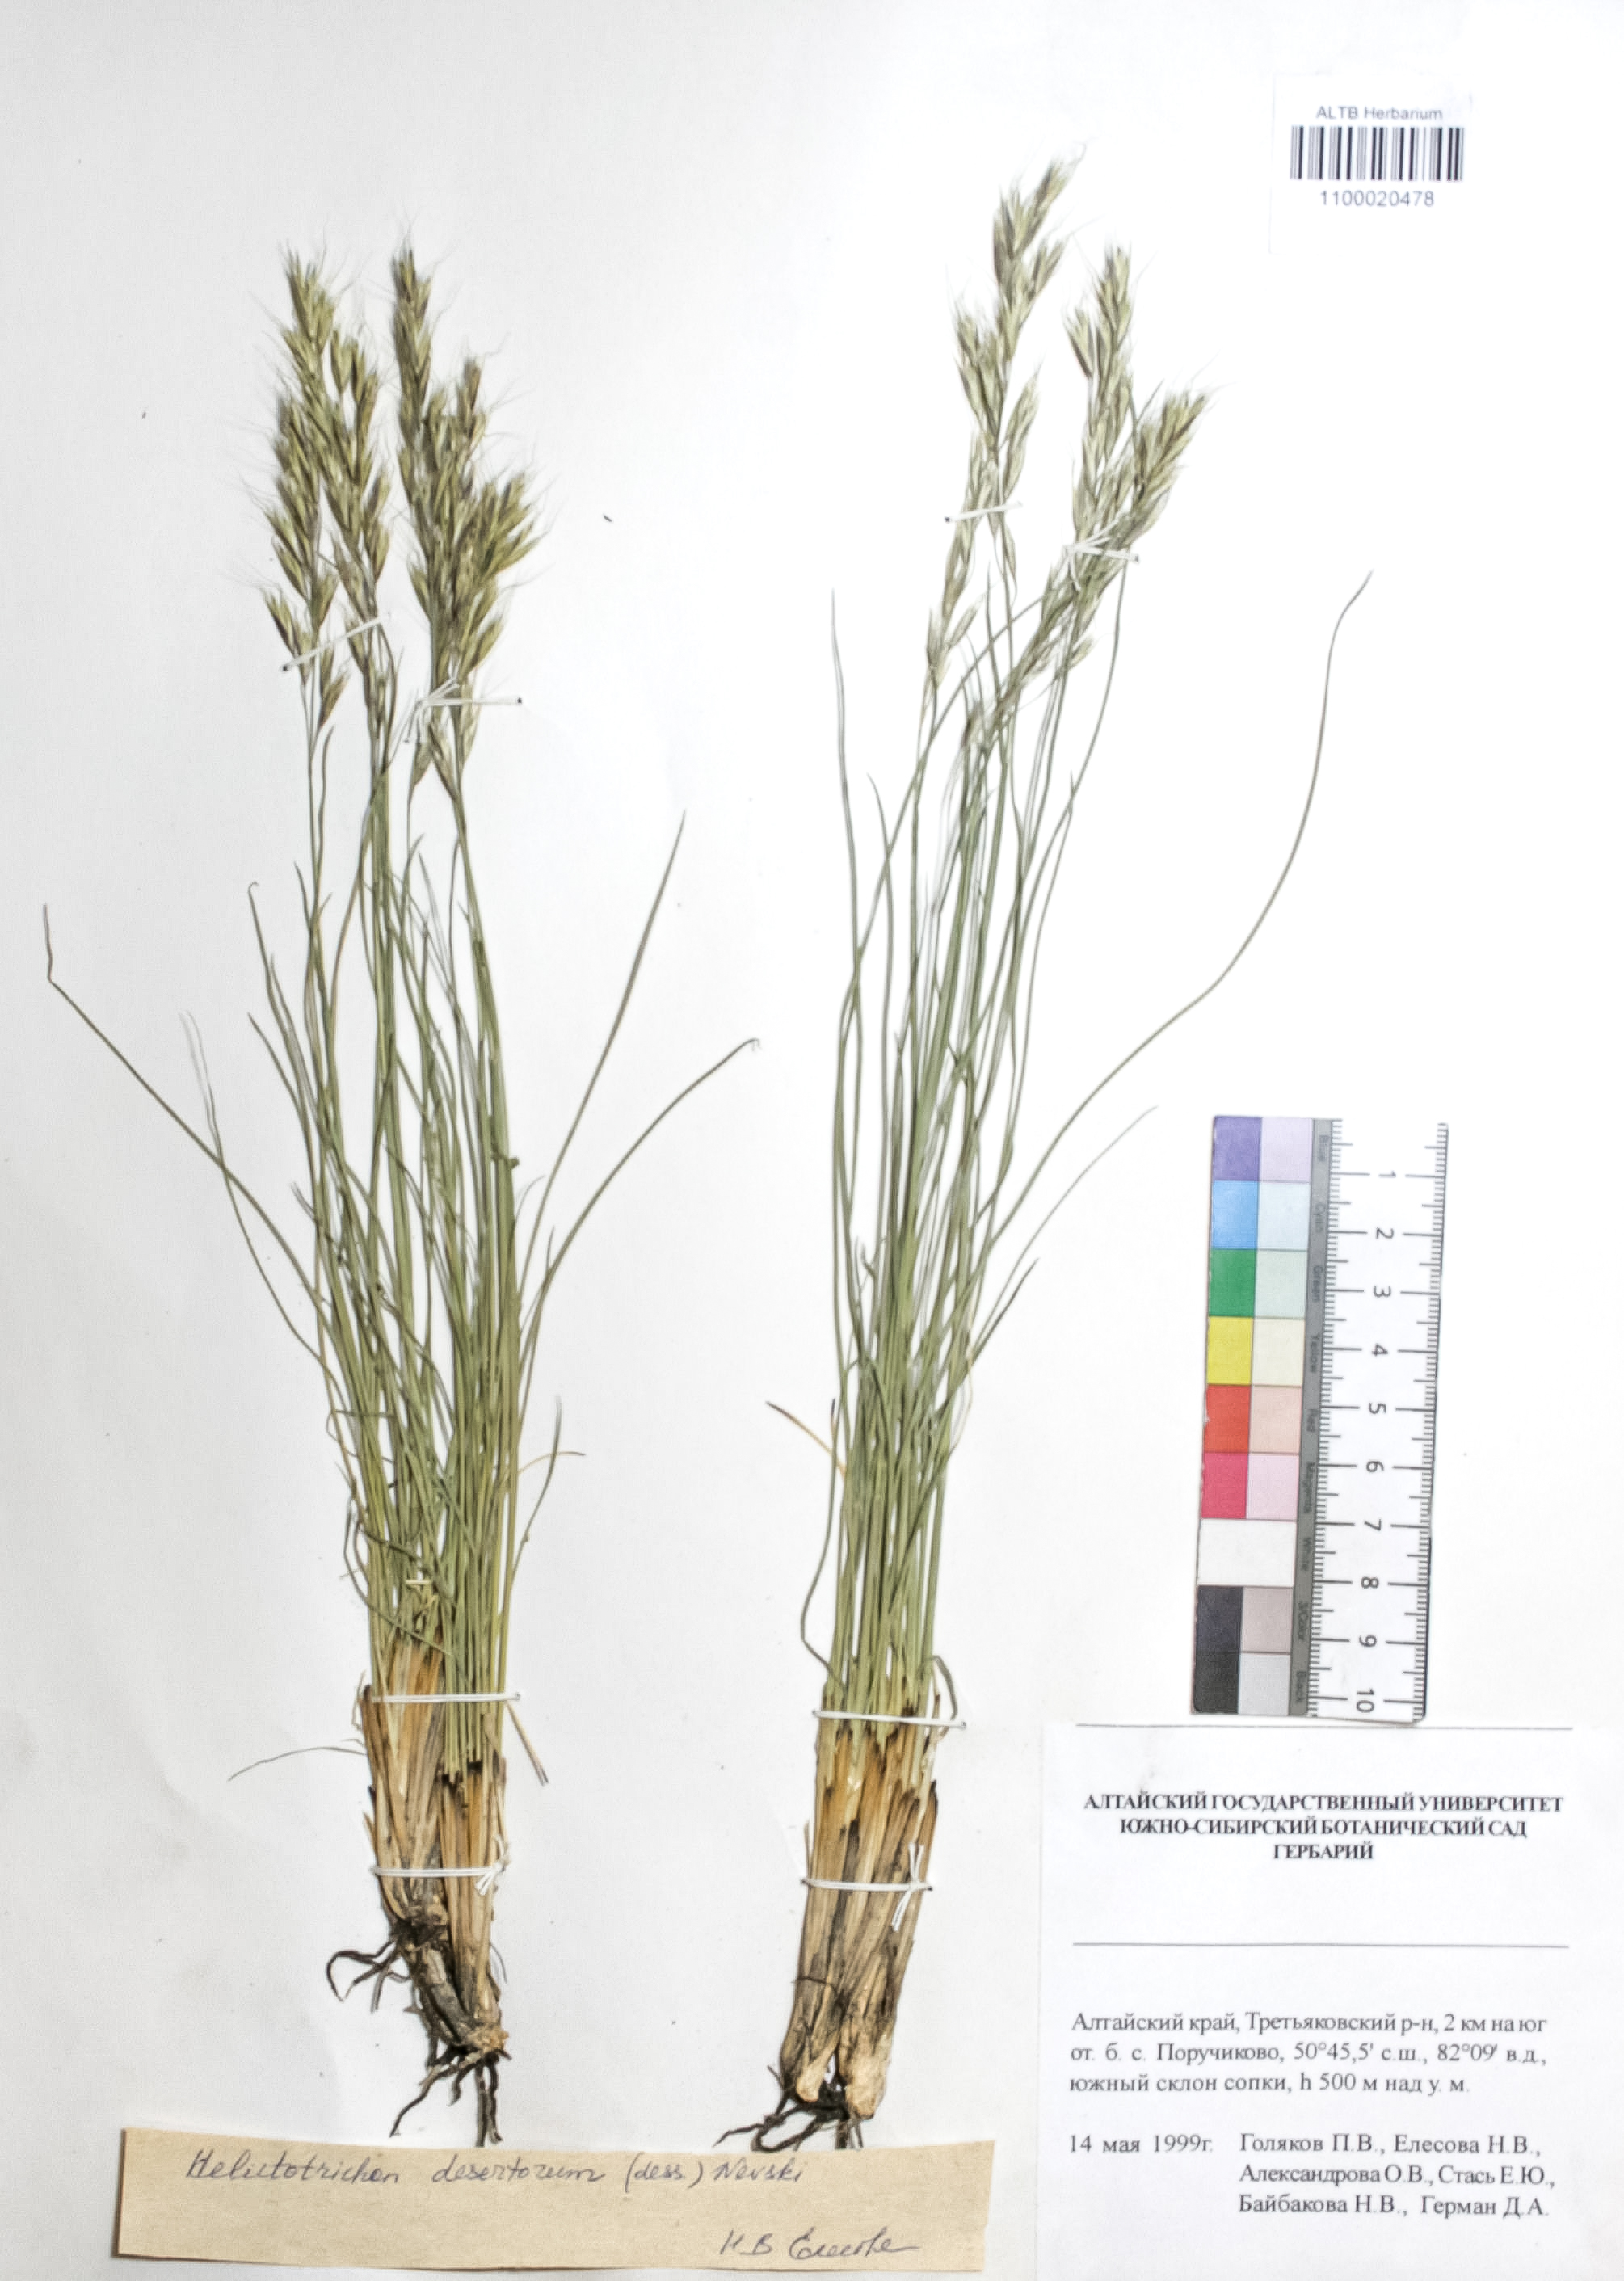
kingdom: Plantae
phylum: Tracheophyta
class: Liliopsida
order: Poales
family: Poaceae
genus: Helictotrichon
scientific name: Helictotrichon desertorum
